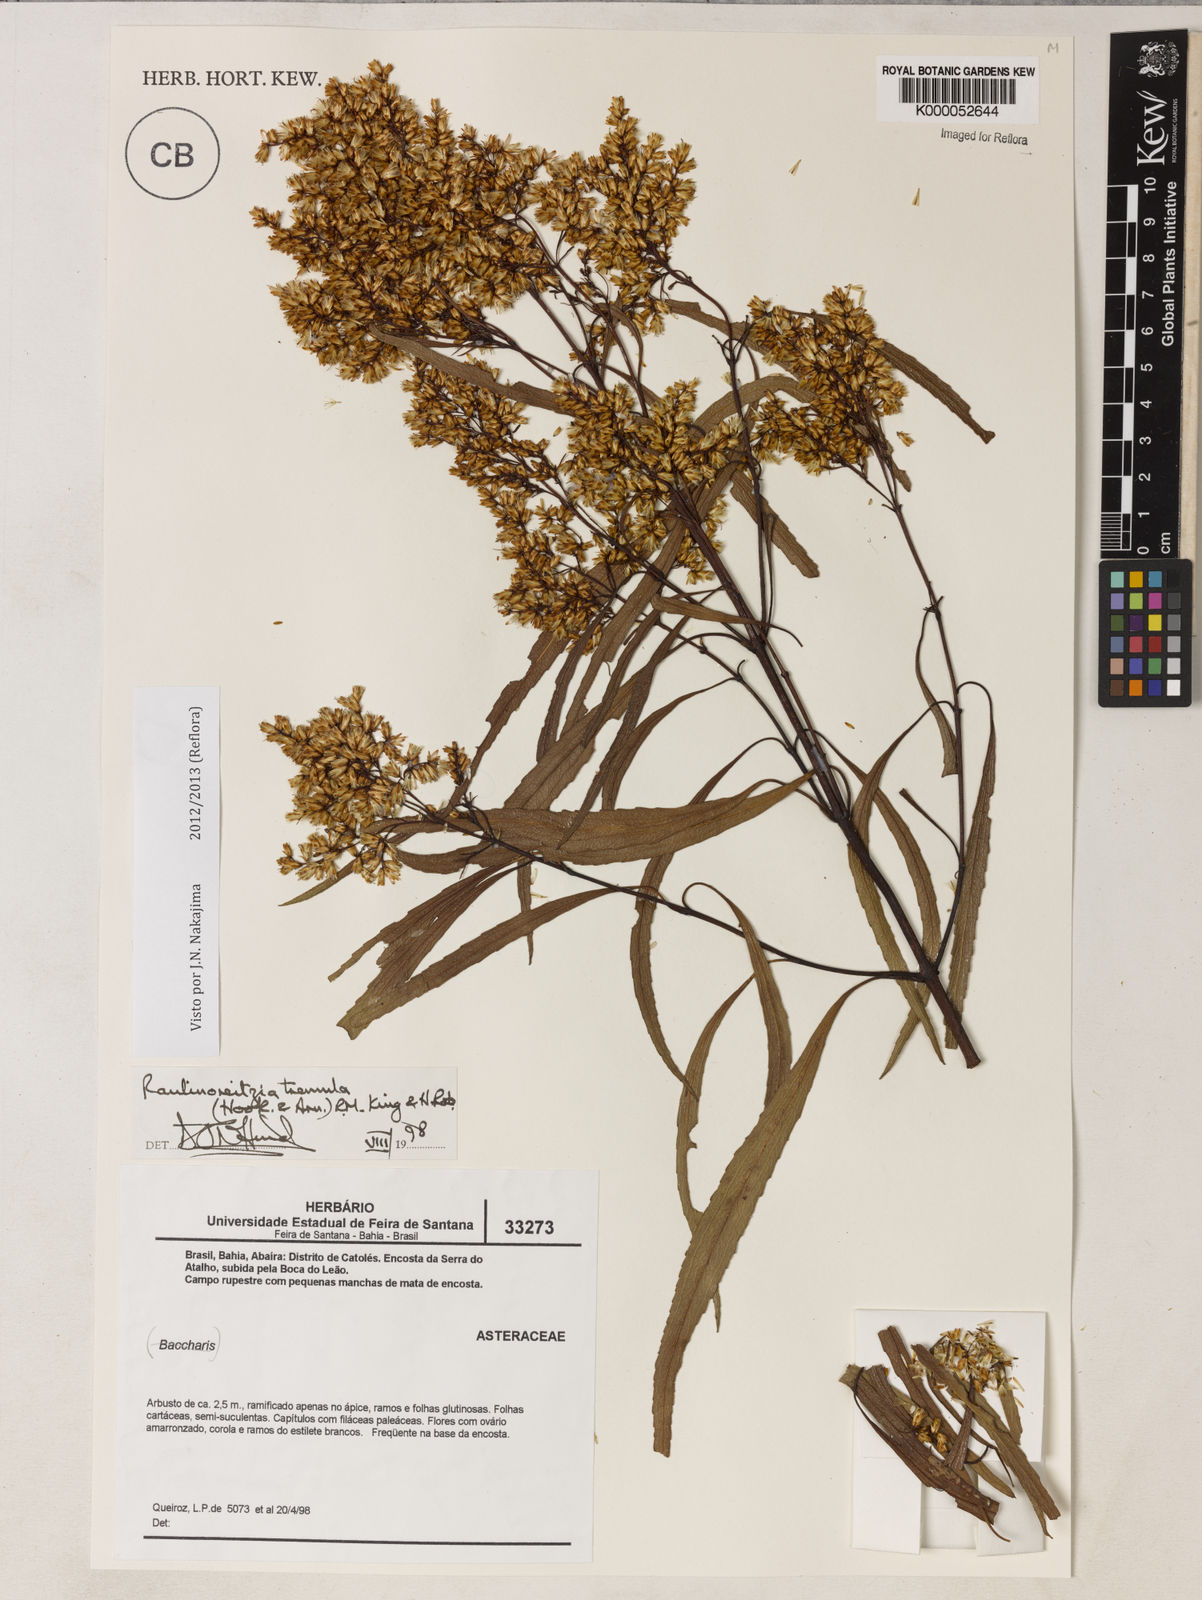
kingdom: Plantae
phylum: Tracheophyta
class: Magnoliopsida
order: Asterales
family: Asteraceae
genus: Raulinoreitzia
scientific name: Raulinoreitzia tremula
